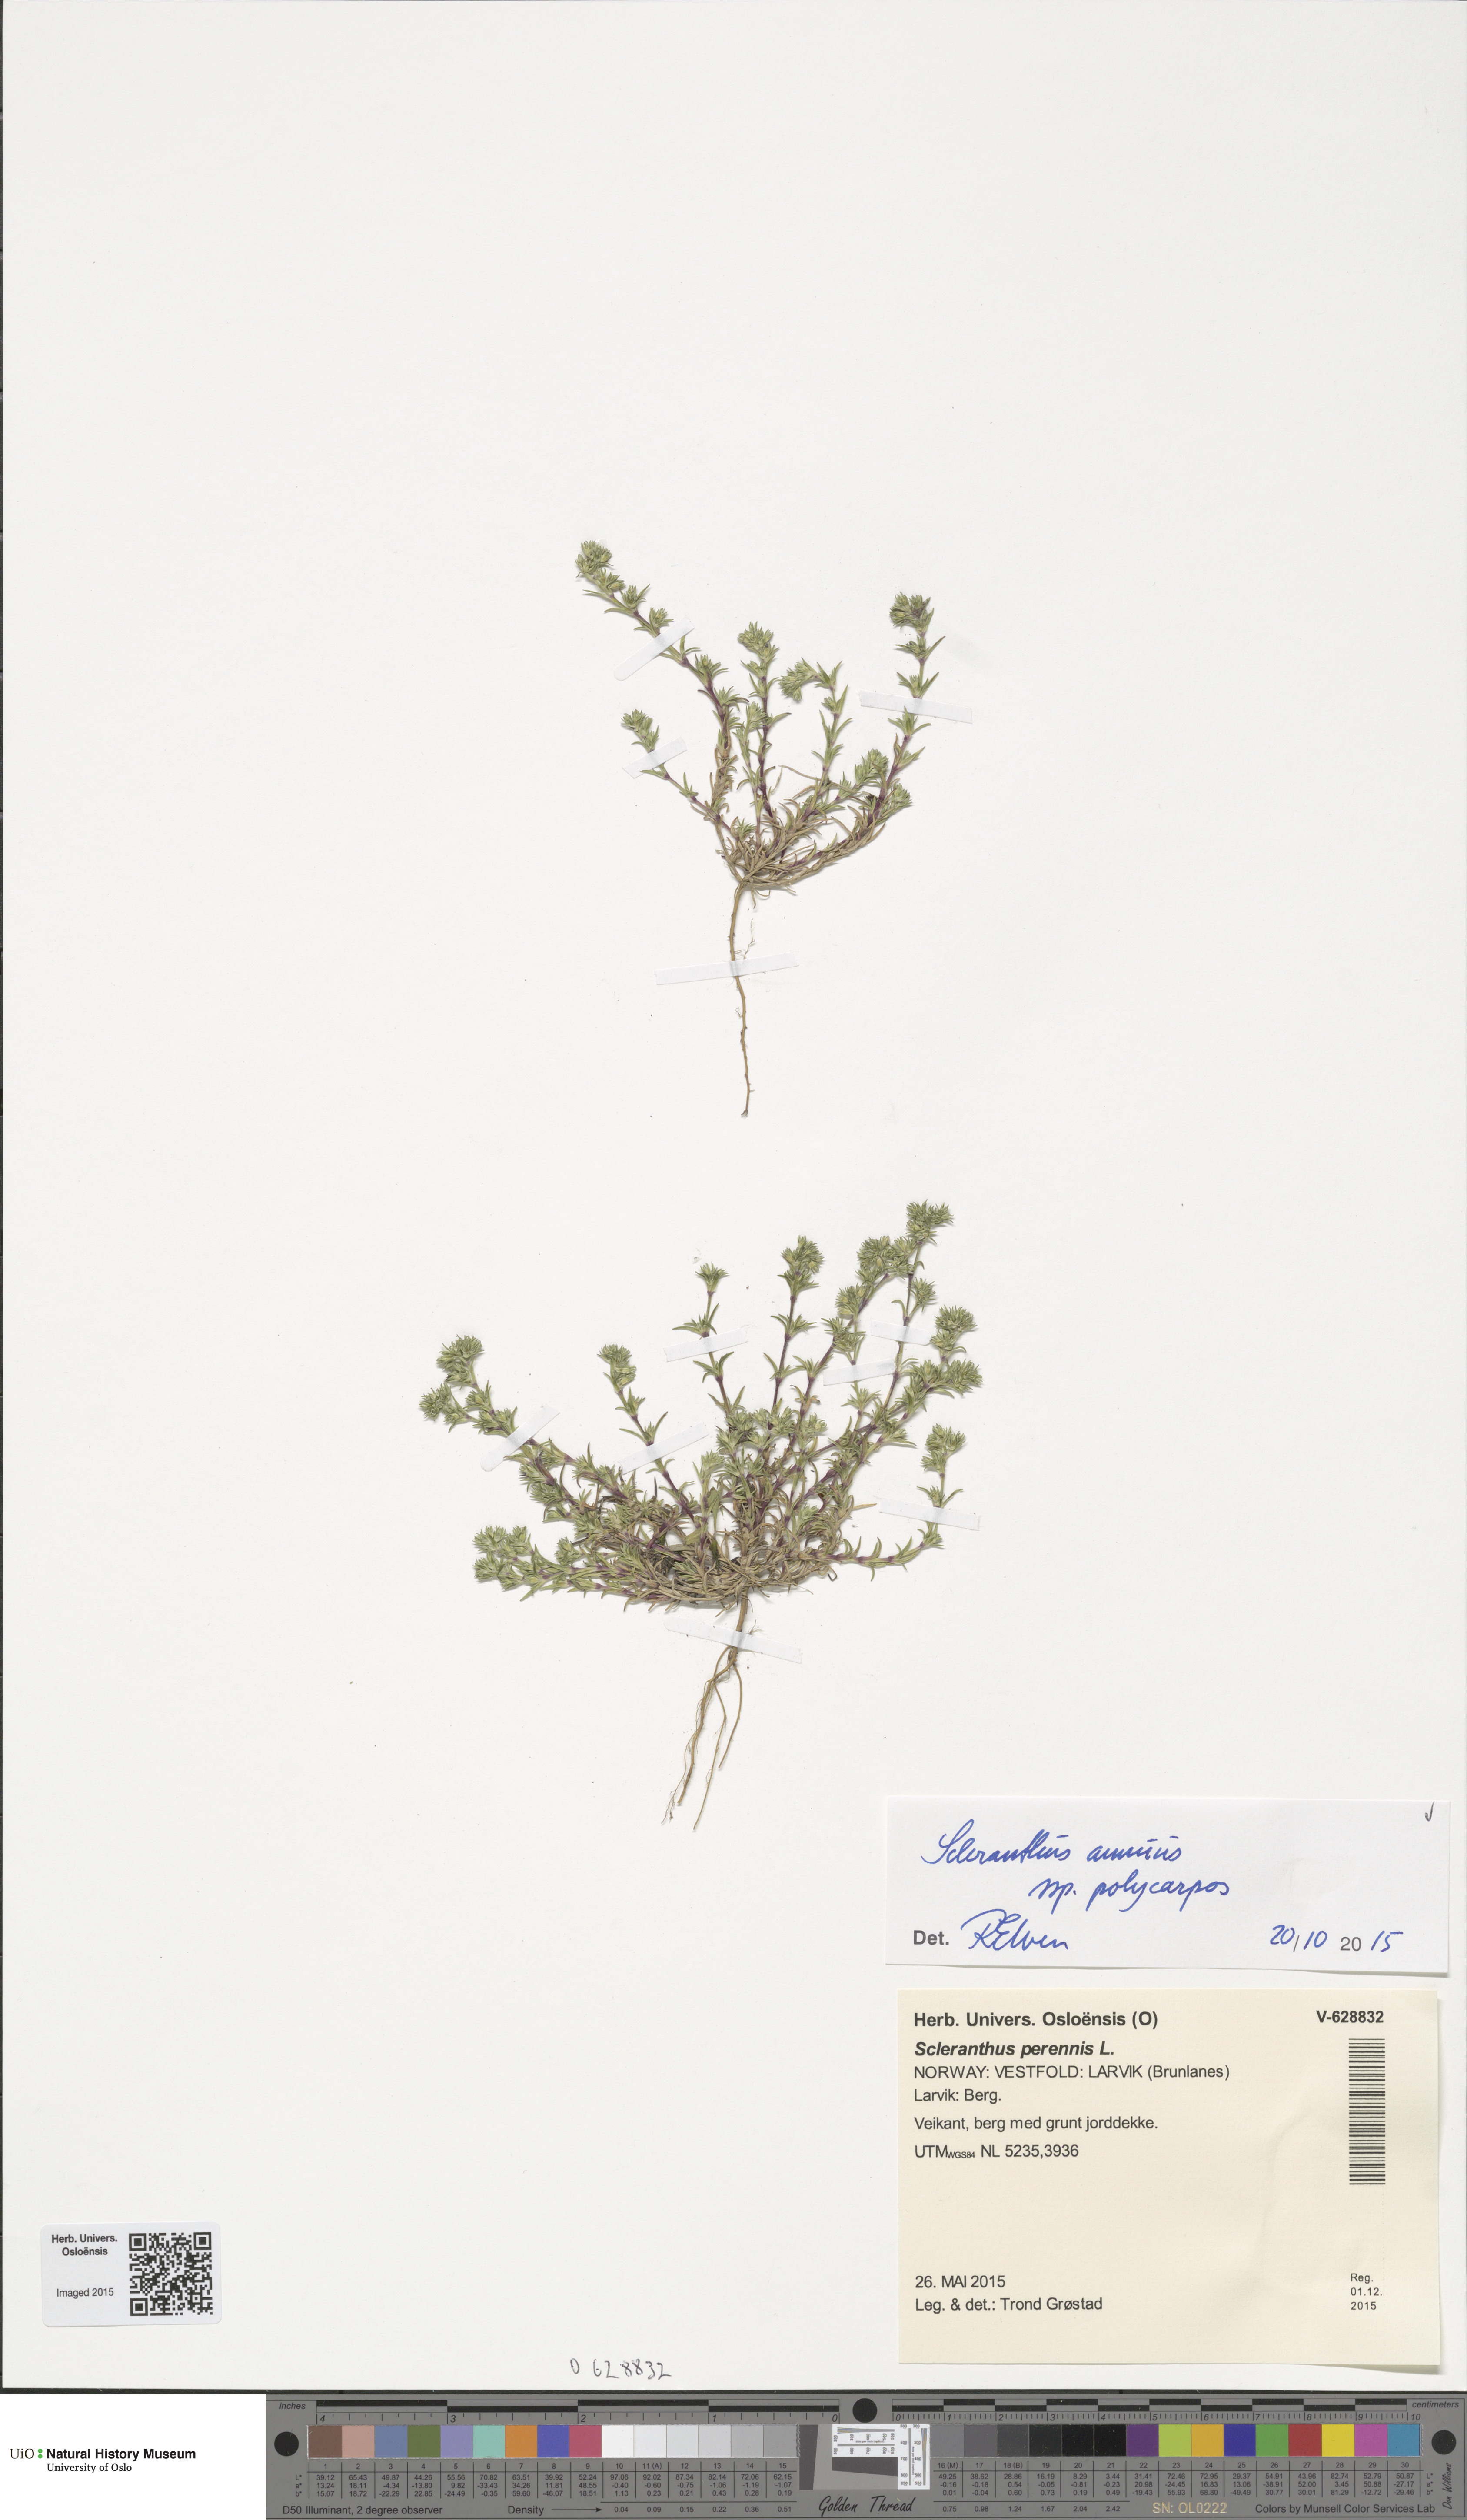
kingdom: Plantae
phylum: Tracheophyta
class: Magnoliopsida
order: Caryophyllales
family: Caryophyllaceae
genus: Scleranthus
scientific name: Scleranthus annuus
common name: Annual knawel
